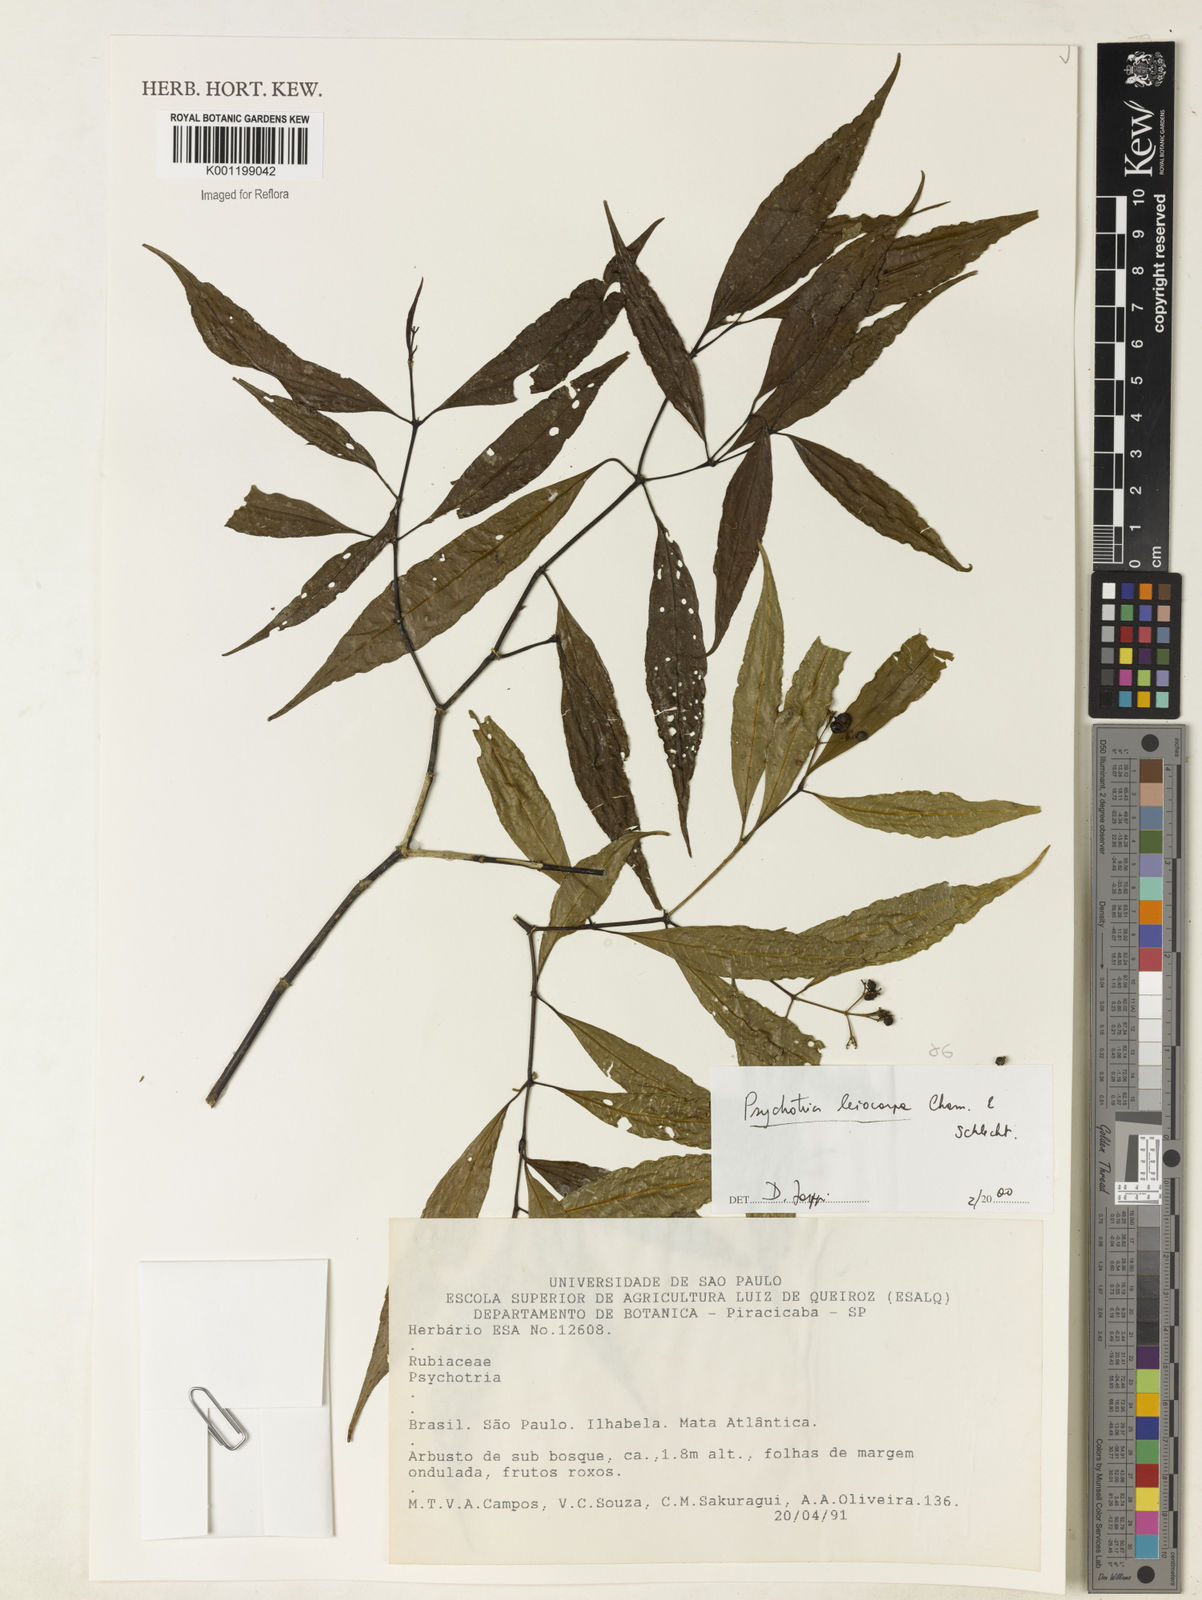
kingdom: Plantae
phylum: Tracheophyta
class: Magnoliopsida
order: Gentianales
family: Rubiaceae
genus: Psychotria
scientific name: Psychotria leiocarpa
